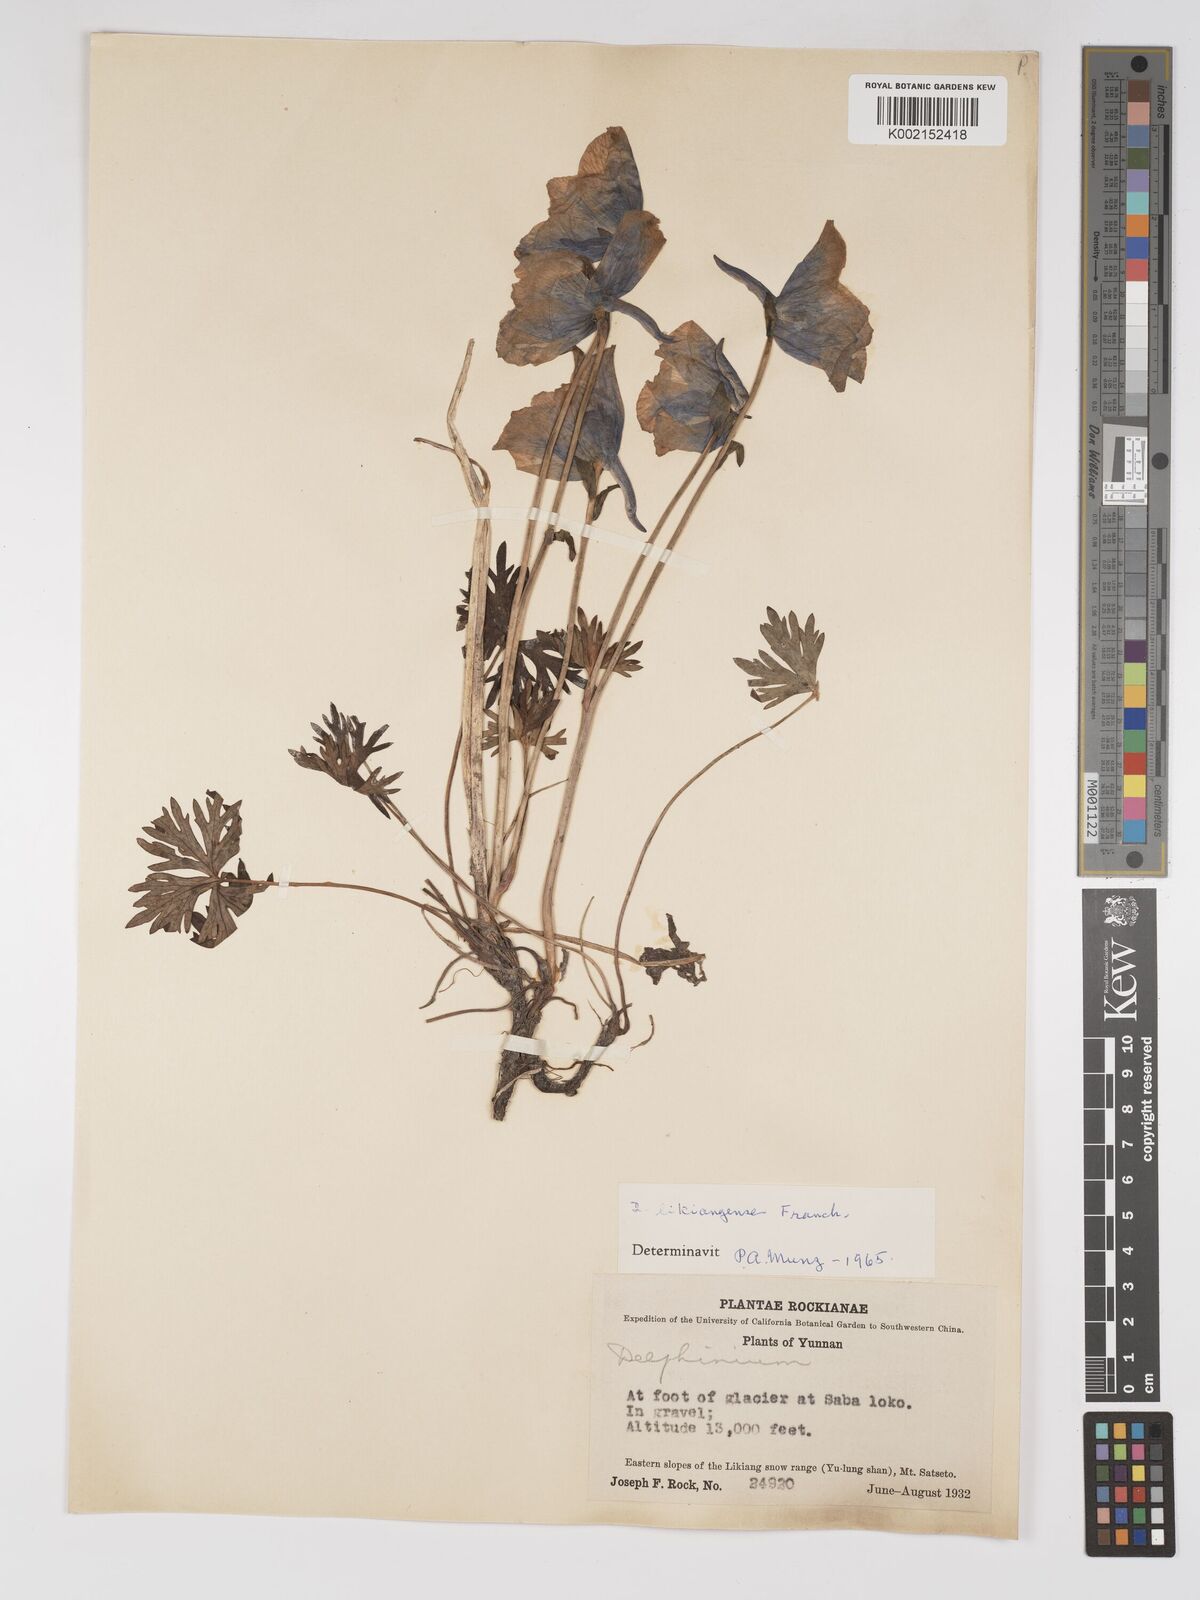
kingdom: Plantae
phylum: Tracheophyta
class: Magnoliopsida
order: Ranunculales
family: Ranunculaceae
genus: Delphinium
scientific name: Delphinium likiangense
